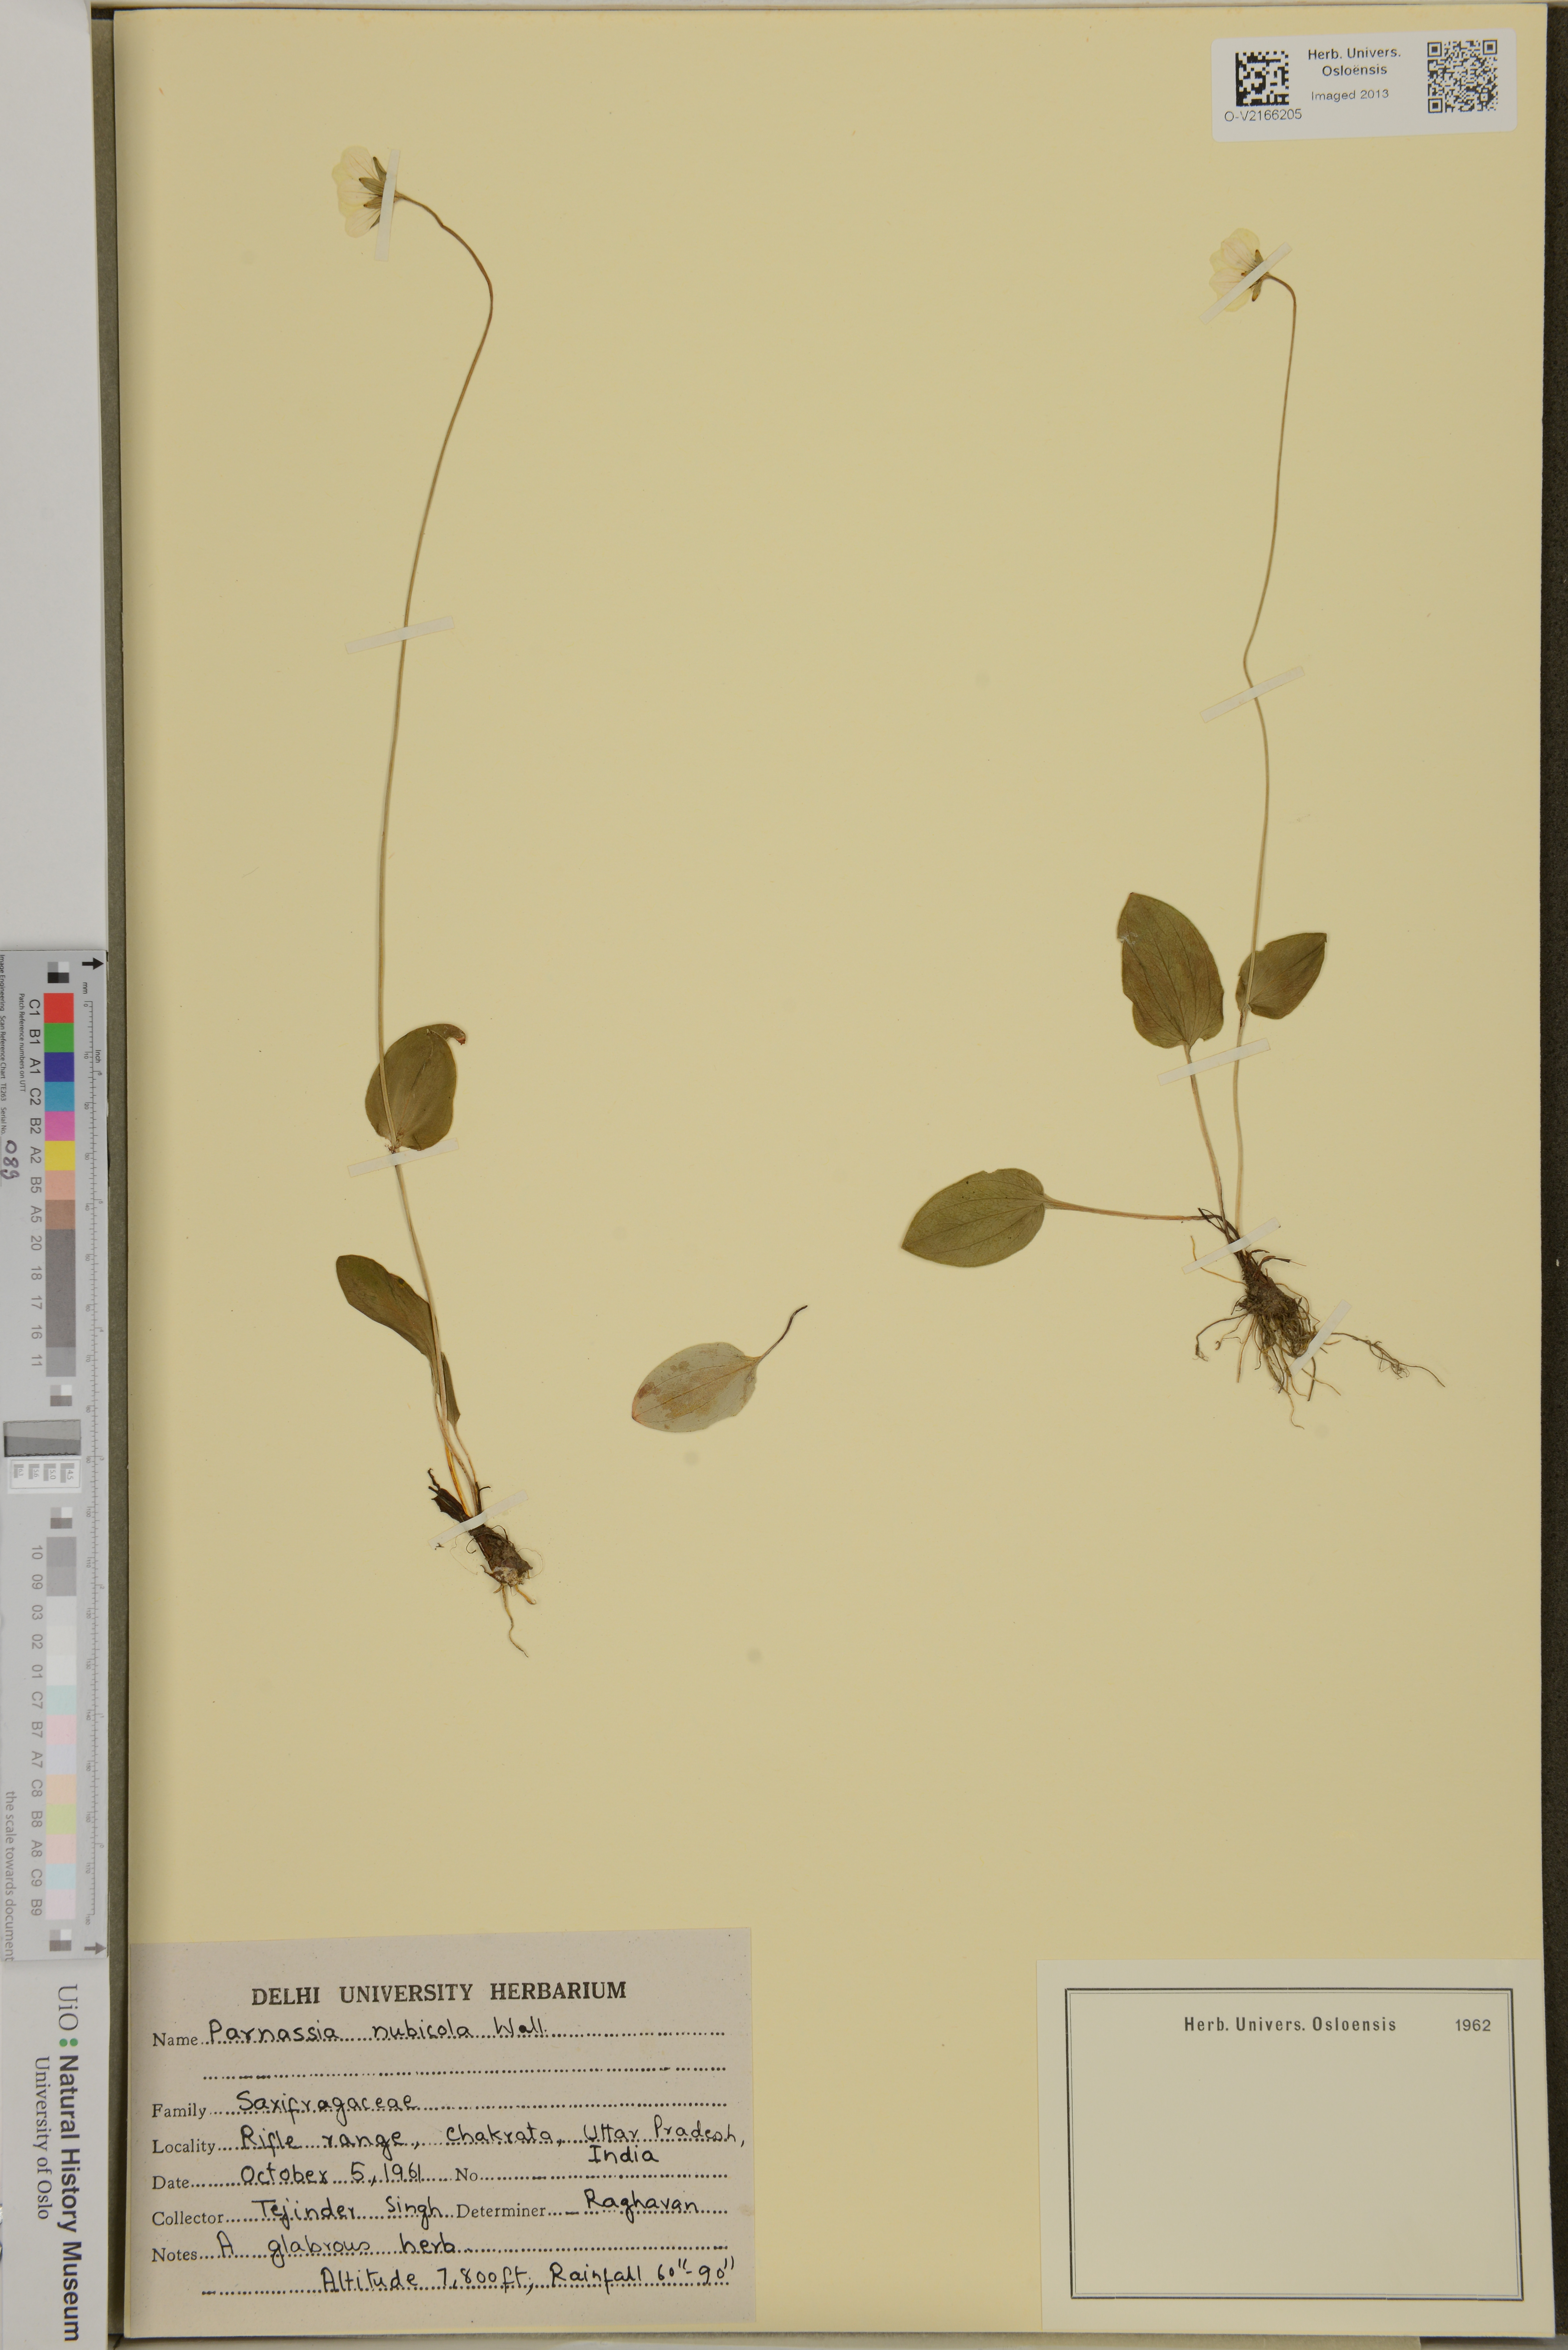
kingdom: Plantae
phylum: Tracheophyta
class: Magnoliopsida
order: Celastrales
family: Parnassiaceae
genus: Parnassia
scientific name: Parnassia nubicola
